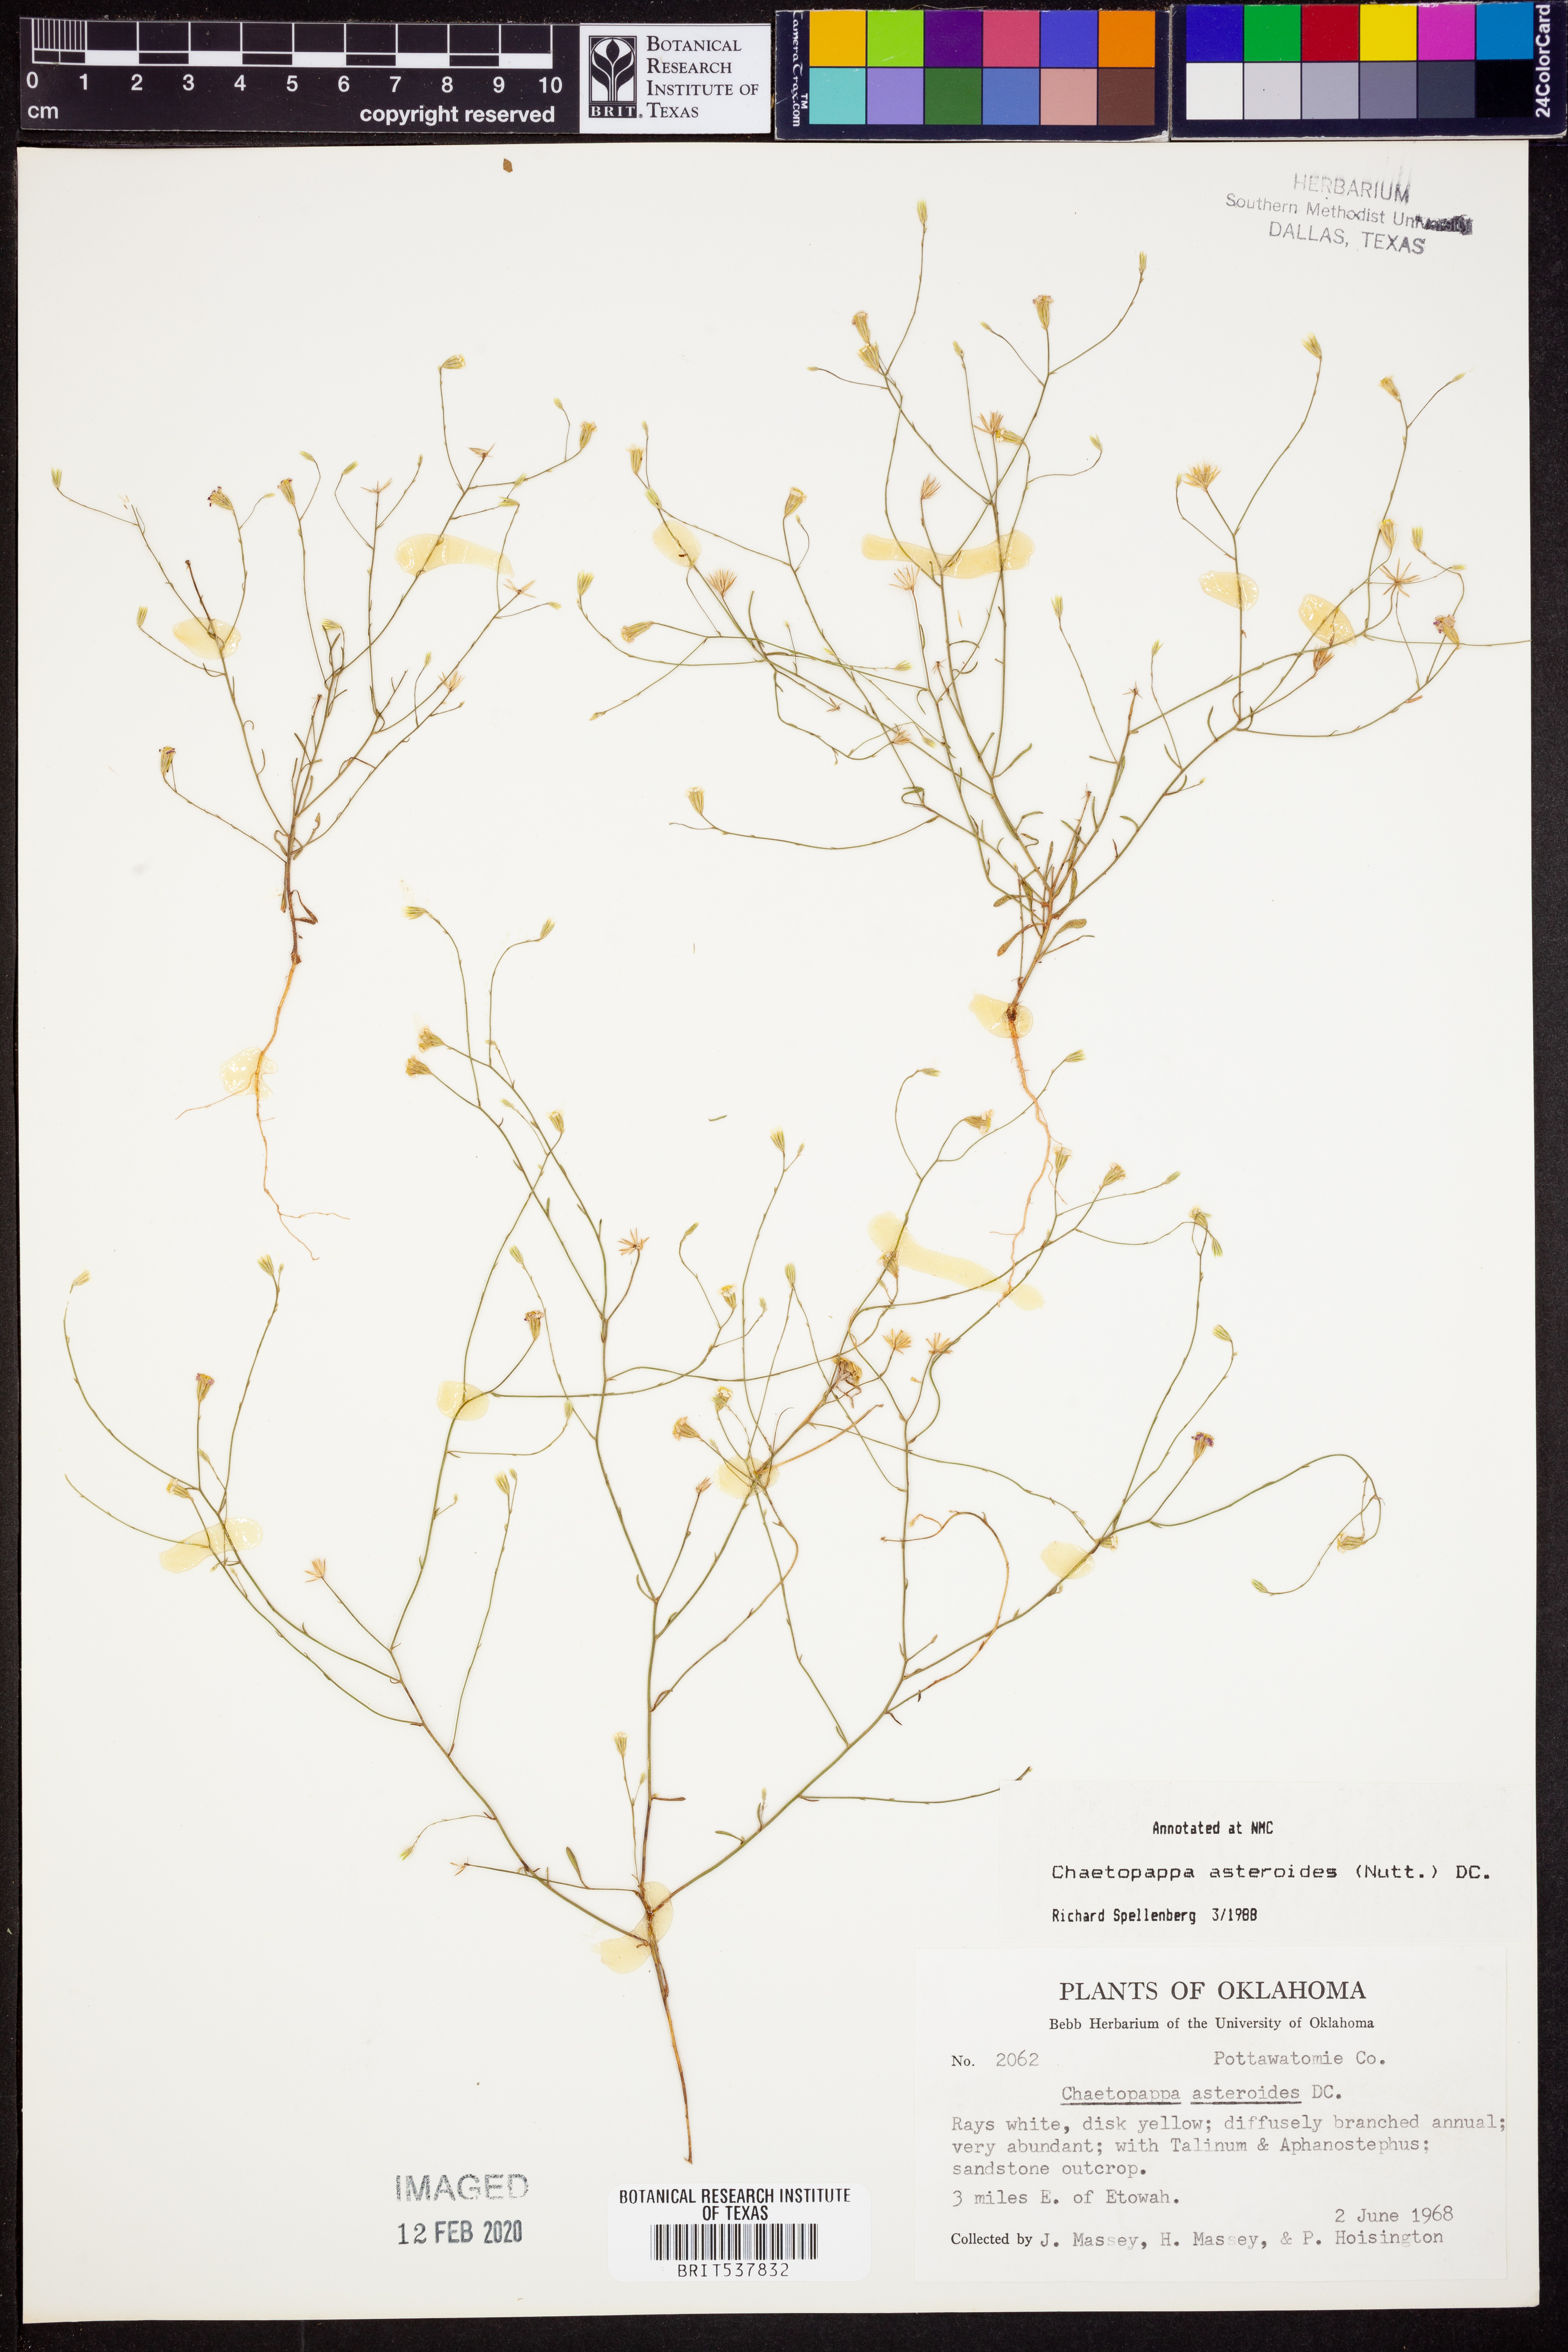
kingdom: Plantae
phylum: Tracheophyta
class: Magnoliopsida
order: Asterales
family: Asteraceae
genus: Chaetopappa
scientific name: Chaetopappa asteroides
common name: Tiny lazy daisy
